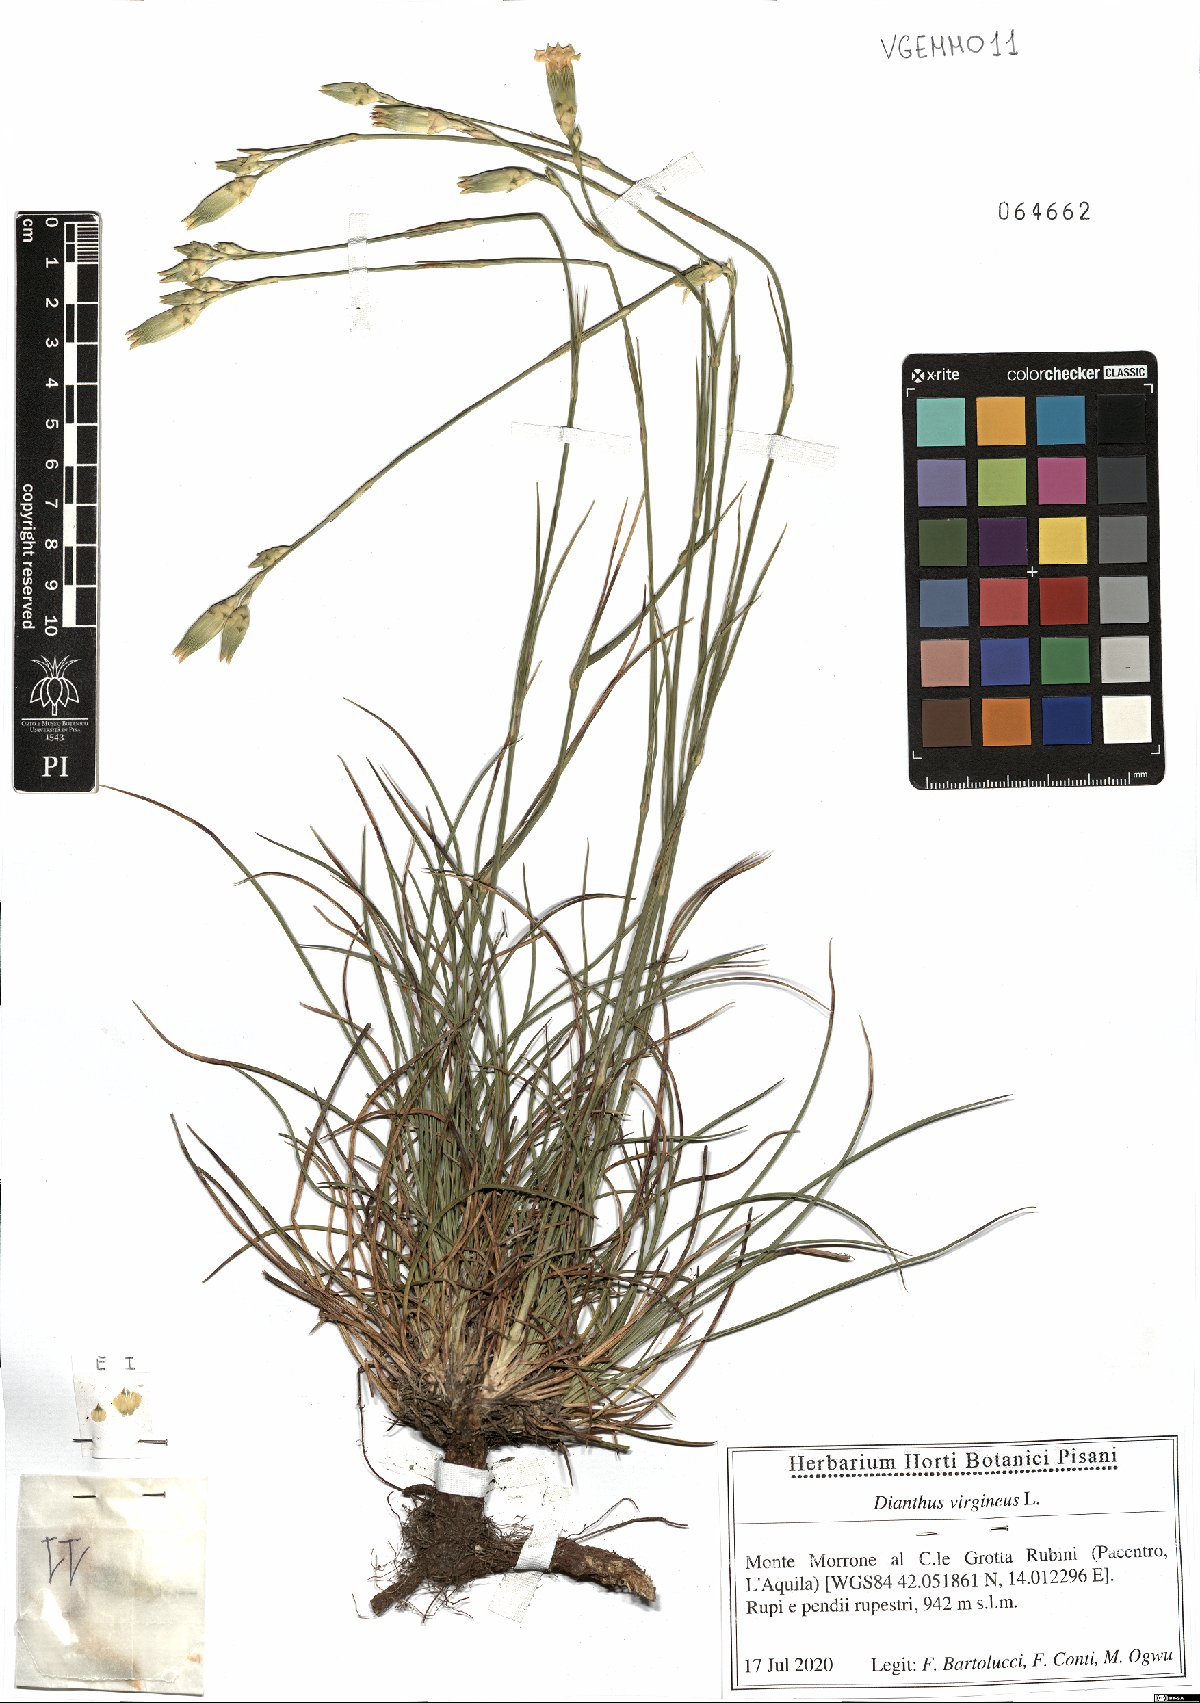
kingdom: Plantae
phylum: Tracheophyta
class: Magnoliopsida
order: Caryophyllales
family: Caryophyllaceae
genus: Dianthus
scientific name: Dianthus virgineus
